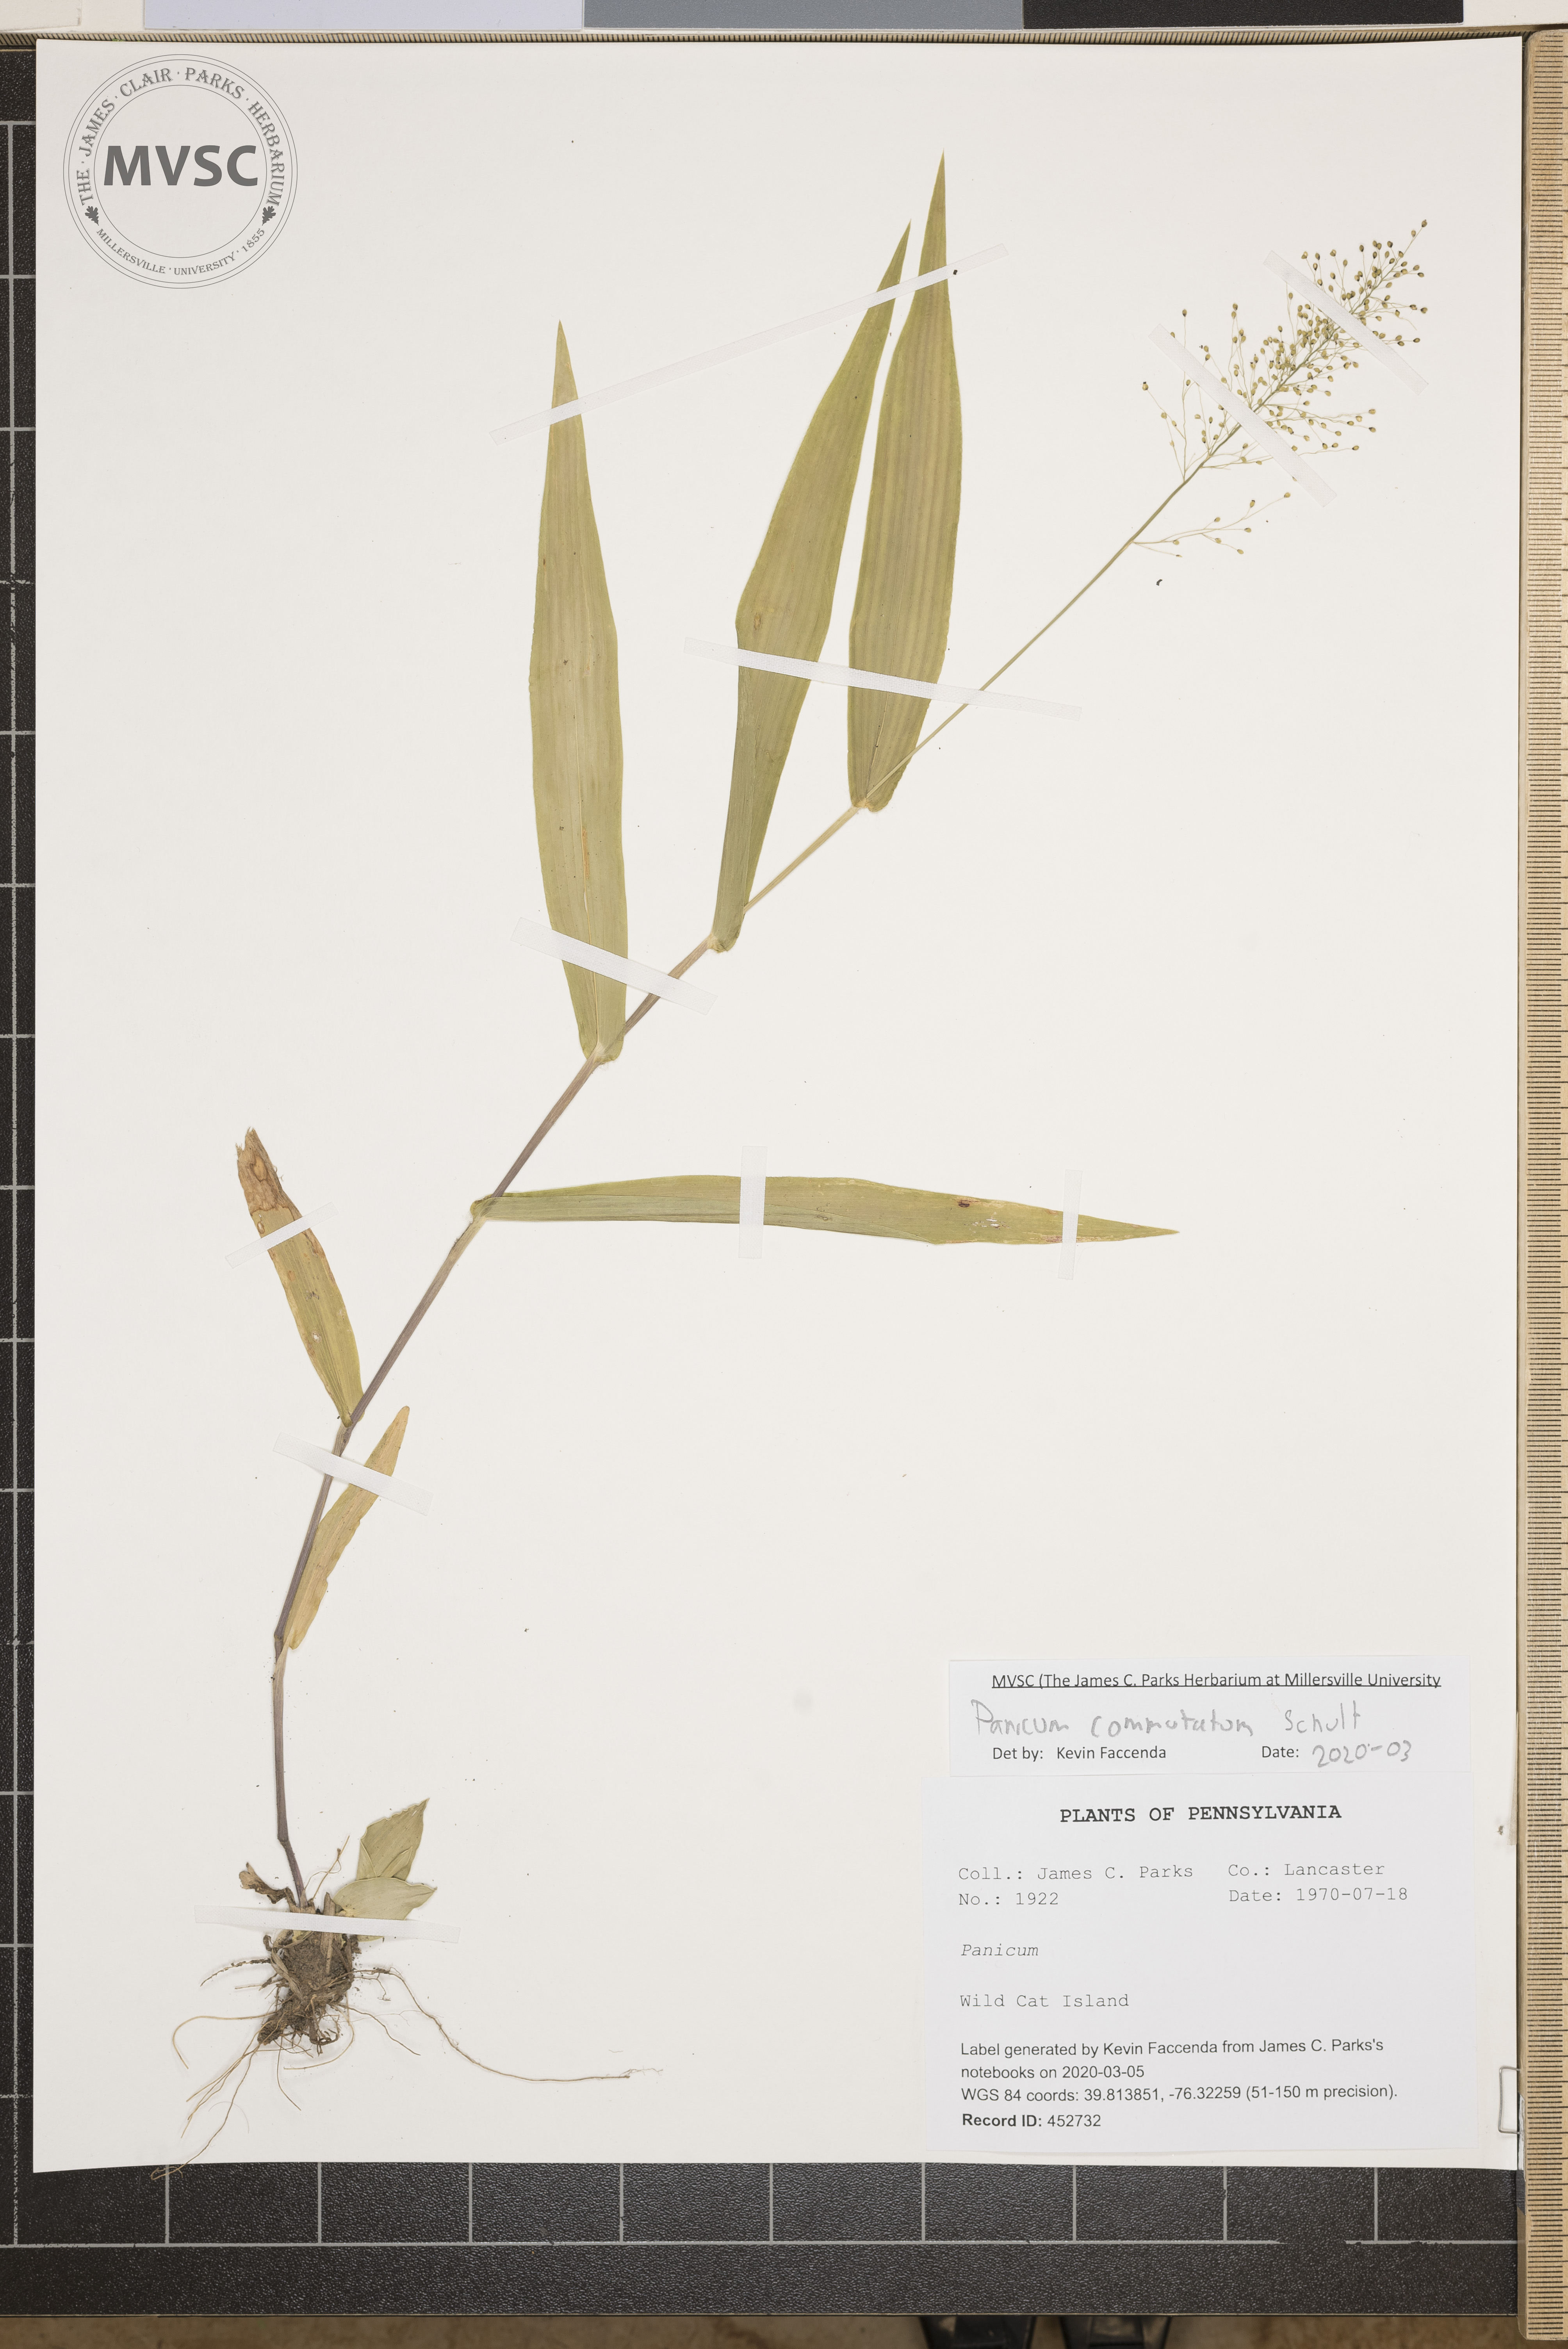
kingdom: Plantae
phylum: Tracheophyta
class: Liliopsida
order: Poales
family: Poaceae
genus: Dichanthelium
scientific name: Dichanthelium commutatum
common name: Variable witchgrass
